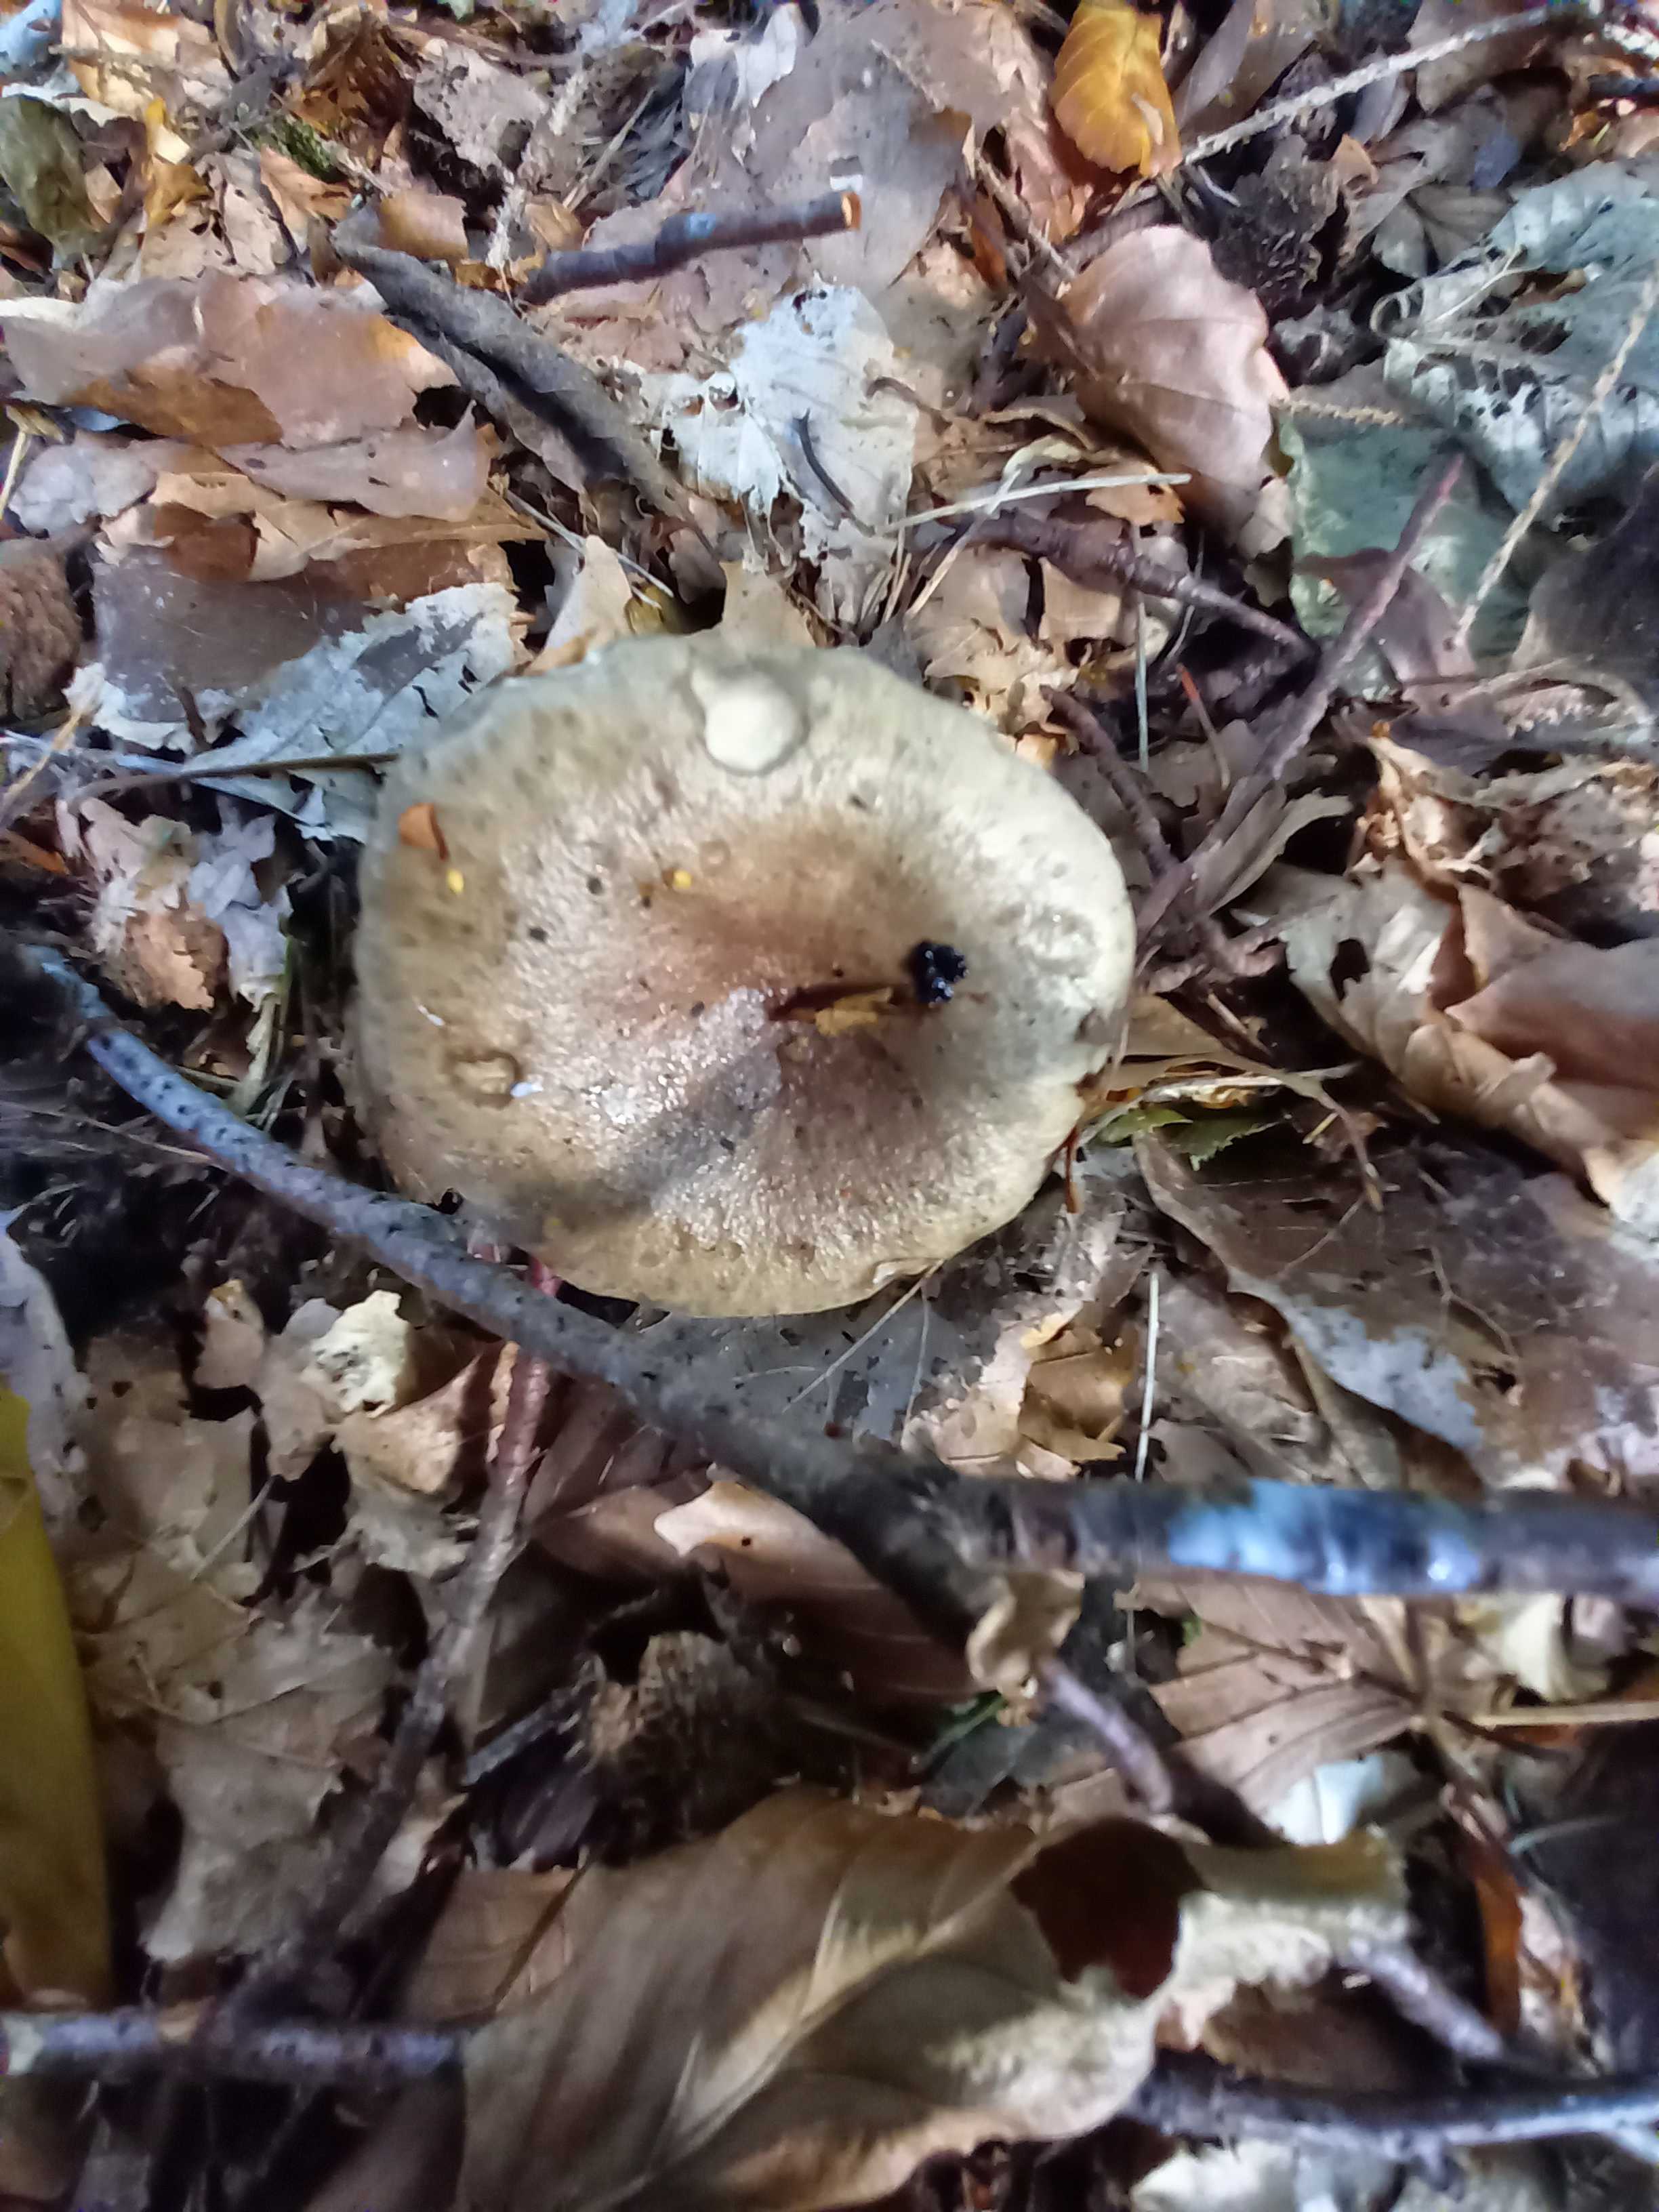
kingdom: Fungi
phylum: Basidiomycota
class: Agaricomycetes
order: Russulales
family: Russulaceae
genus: Lactarius
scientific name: Lactarius blennius
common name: dråbeplettet mælkehat
